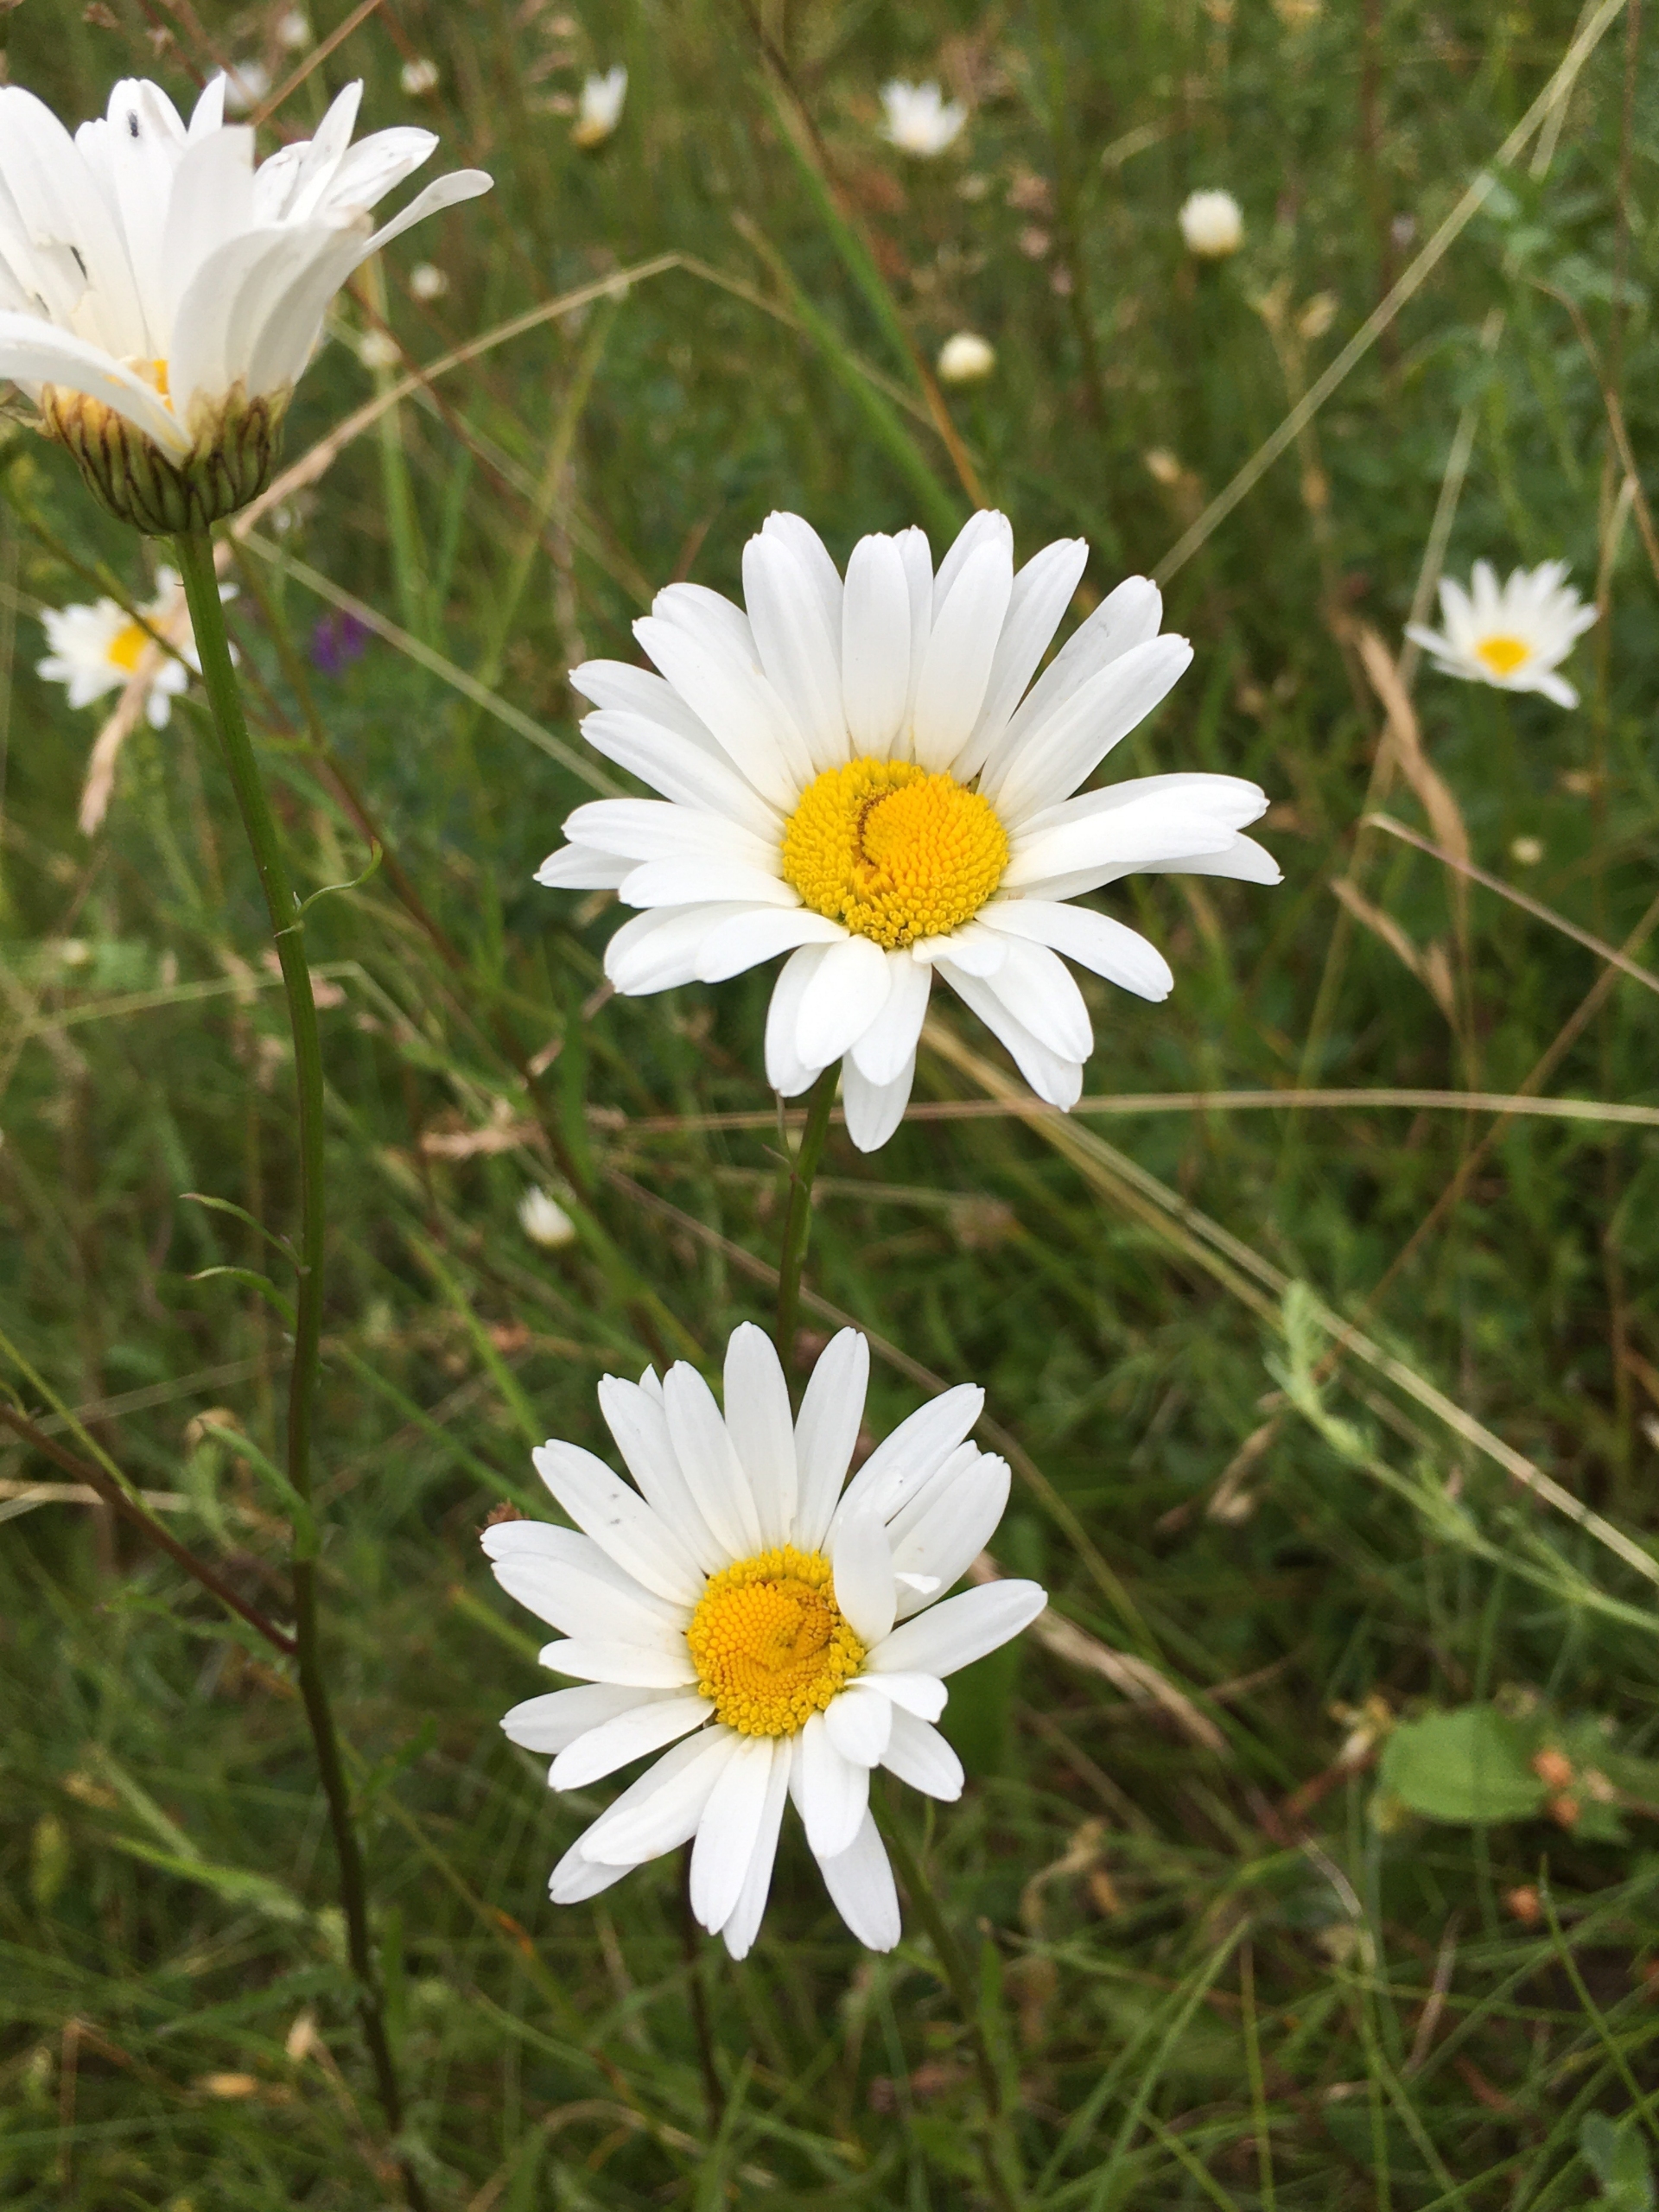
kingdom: Plantae
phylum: Tracheophyta
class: Magnoliopsida
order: Asterales
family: Asteraceae
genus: Leucanthemum
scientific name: Leucanthemum vulgare
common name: Hvid okseøje
